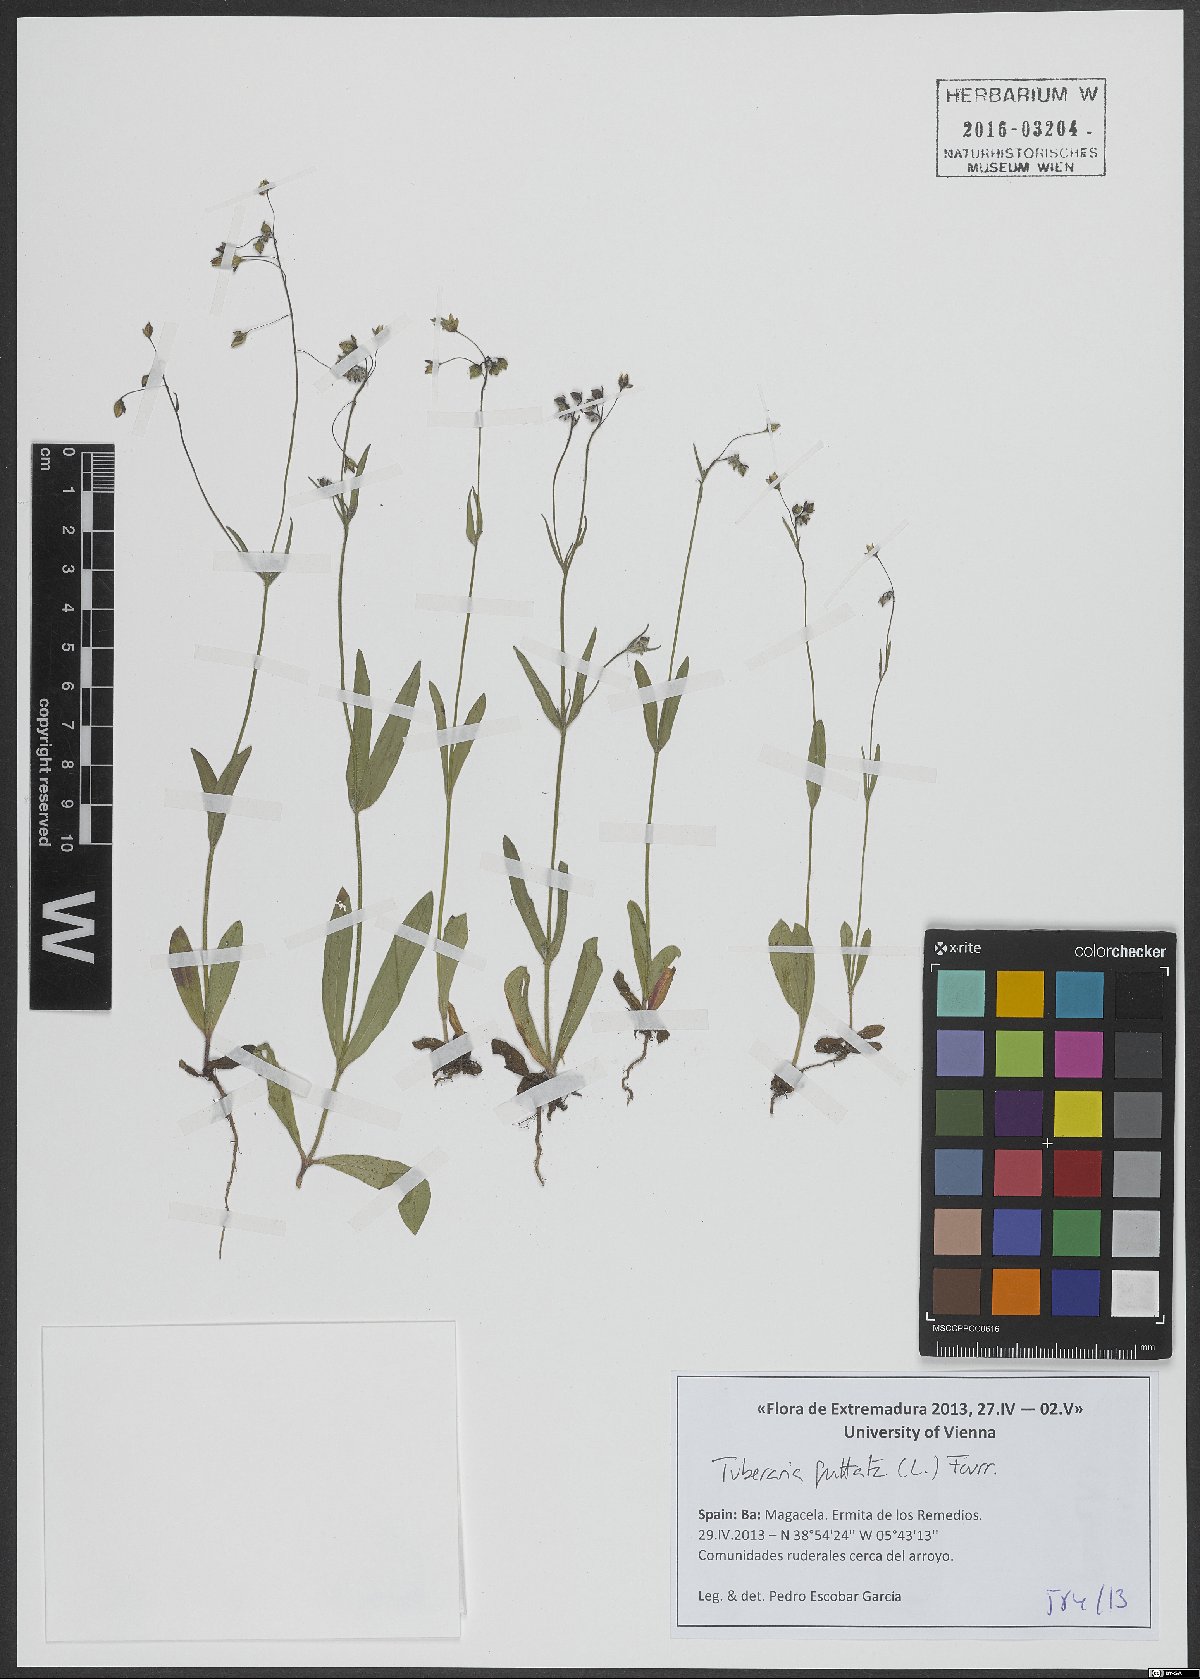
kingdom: Plantae
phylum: Tracheophyta
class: Magnoliopsida
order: Malvales
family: Cistaceae
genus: Tuberaria
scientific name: Tuberaria guttata
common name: Spotted rock-rose
